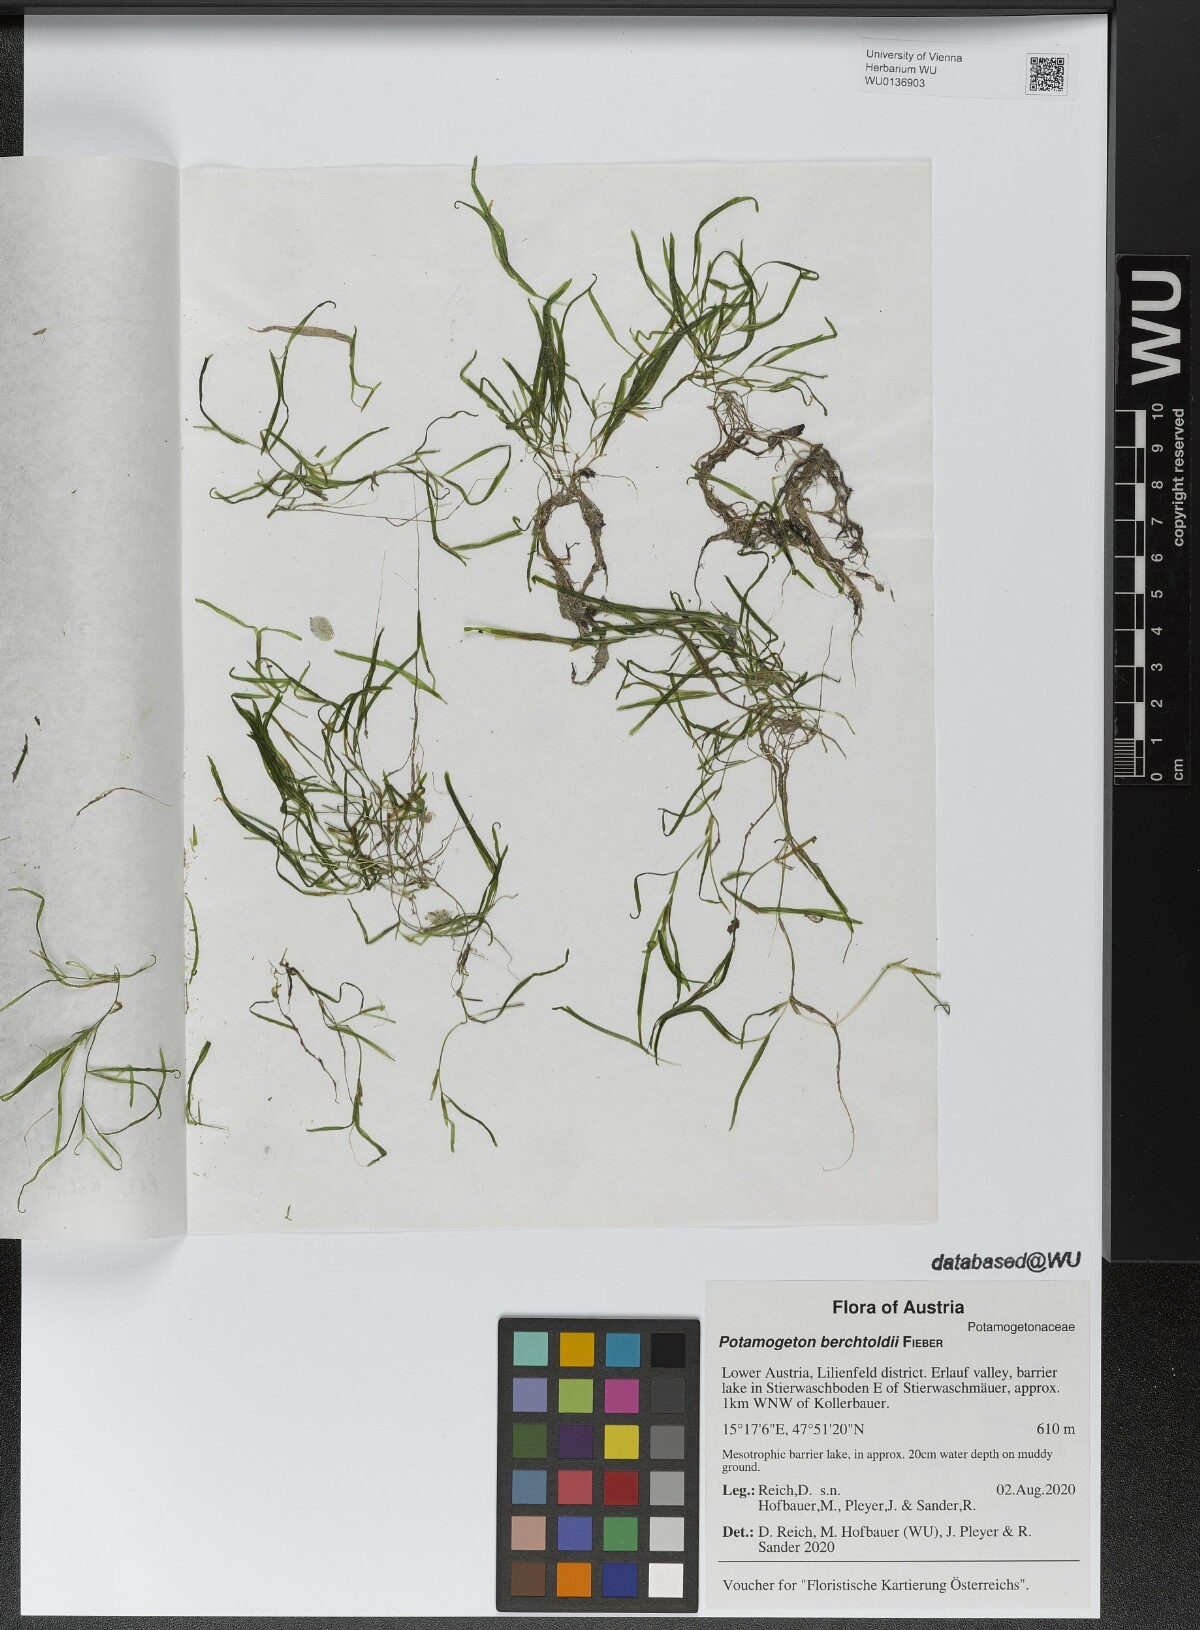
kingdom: Plantae
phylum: Tracheophyta
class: Liliopsida
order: Alismatales
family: Potamogetonaceae
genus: Potamogeton
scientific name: Potamogeton berchtoldii
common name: Small pondweed
